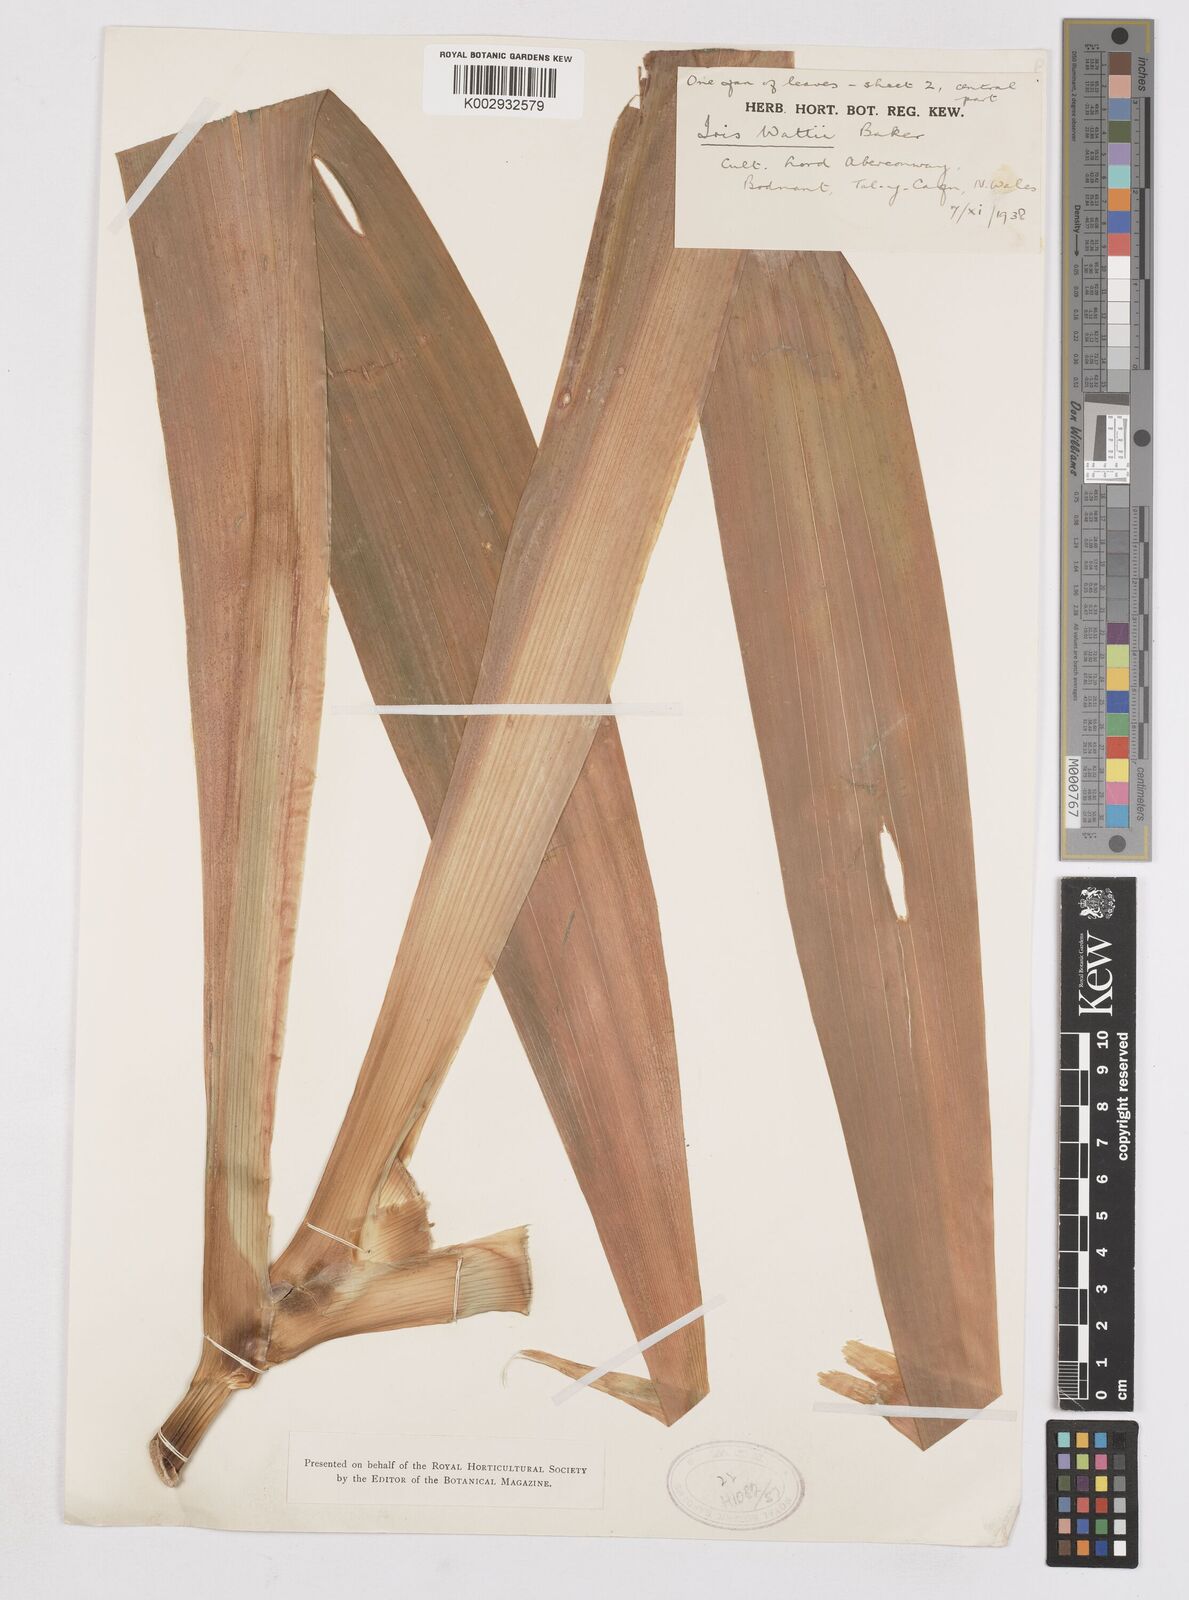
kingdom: Plantae
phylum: Tracheophyta
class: Liliopsida
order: Asparagales
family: Iridaceae
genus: Iris
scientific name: Iris wattii
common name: Fan-shape iris
